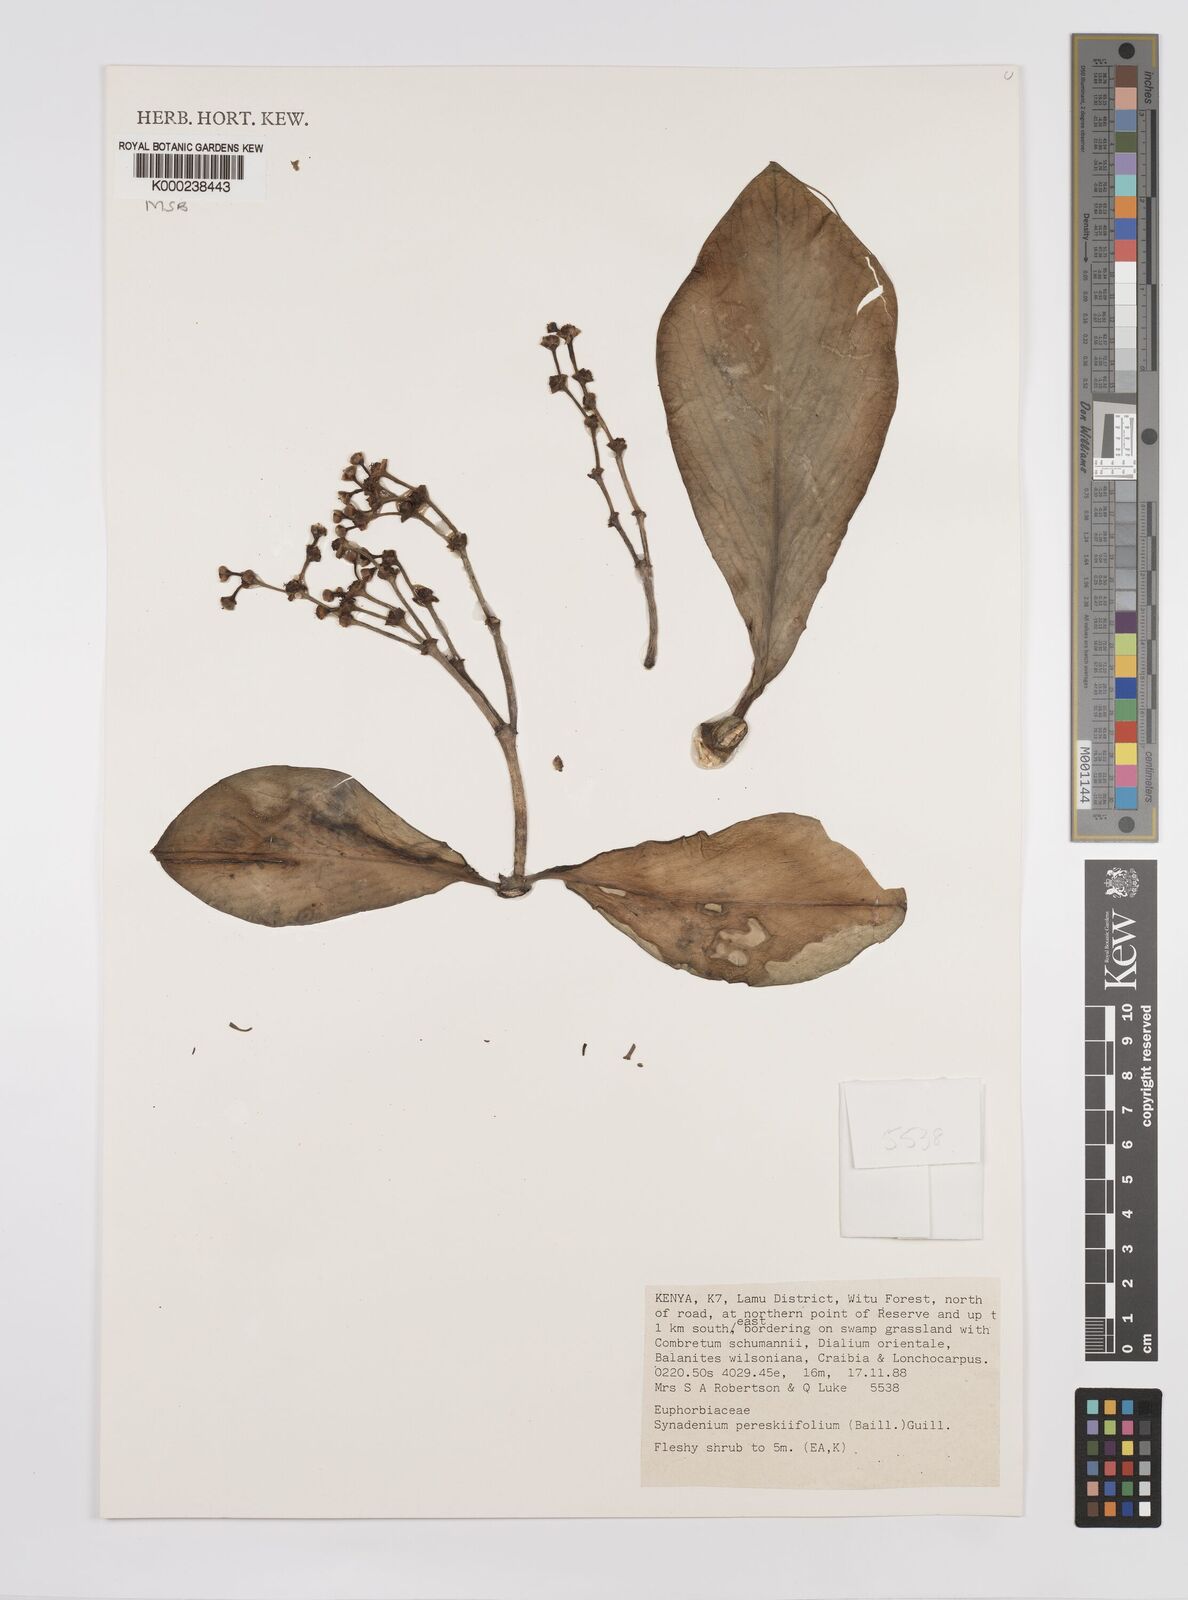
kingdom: Plantae
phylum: Tracheophyta
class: Magnoliopsida
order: Malpighiales
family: Euphorbiaceae
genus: Euphorbia
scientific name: Euphorbia pereskiifolia
